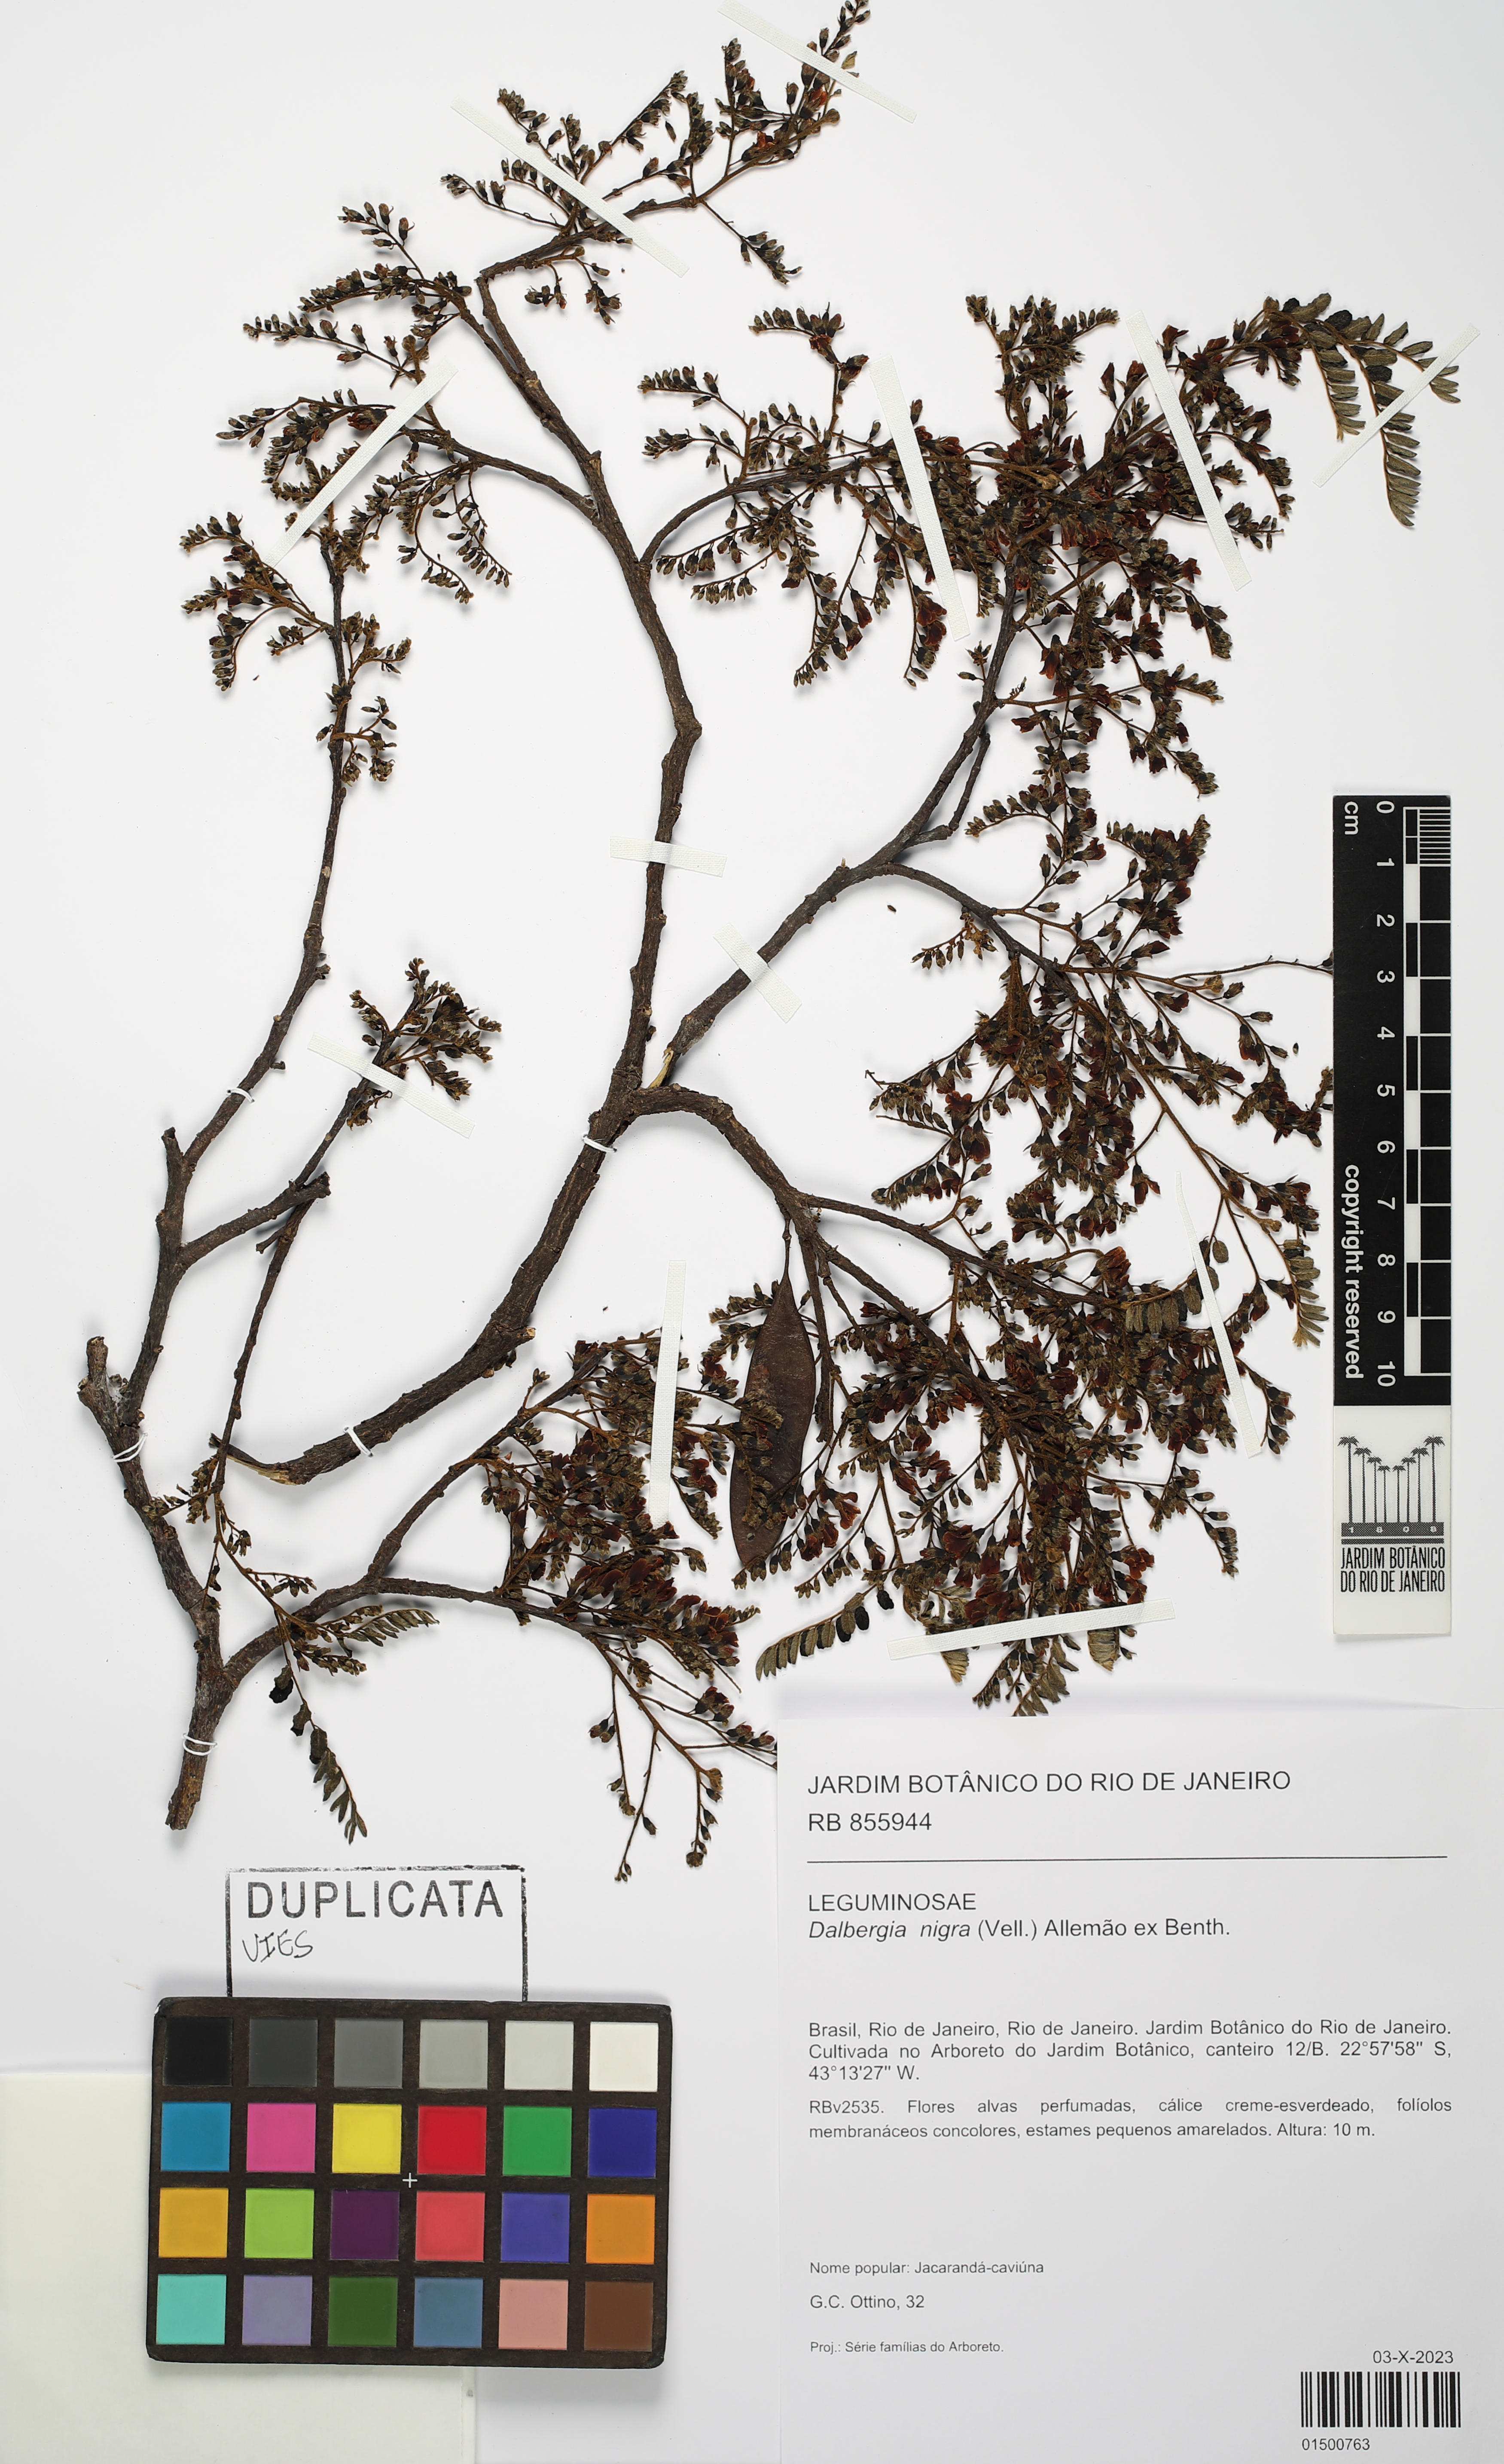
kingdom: Plantae
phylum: Tracheophyta
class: Magnoliopsida
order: Fabales
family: Fabaceae
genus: Dalbergia
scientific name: Dalbergia nigra
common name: Bahia rosewood
